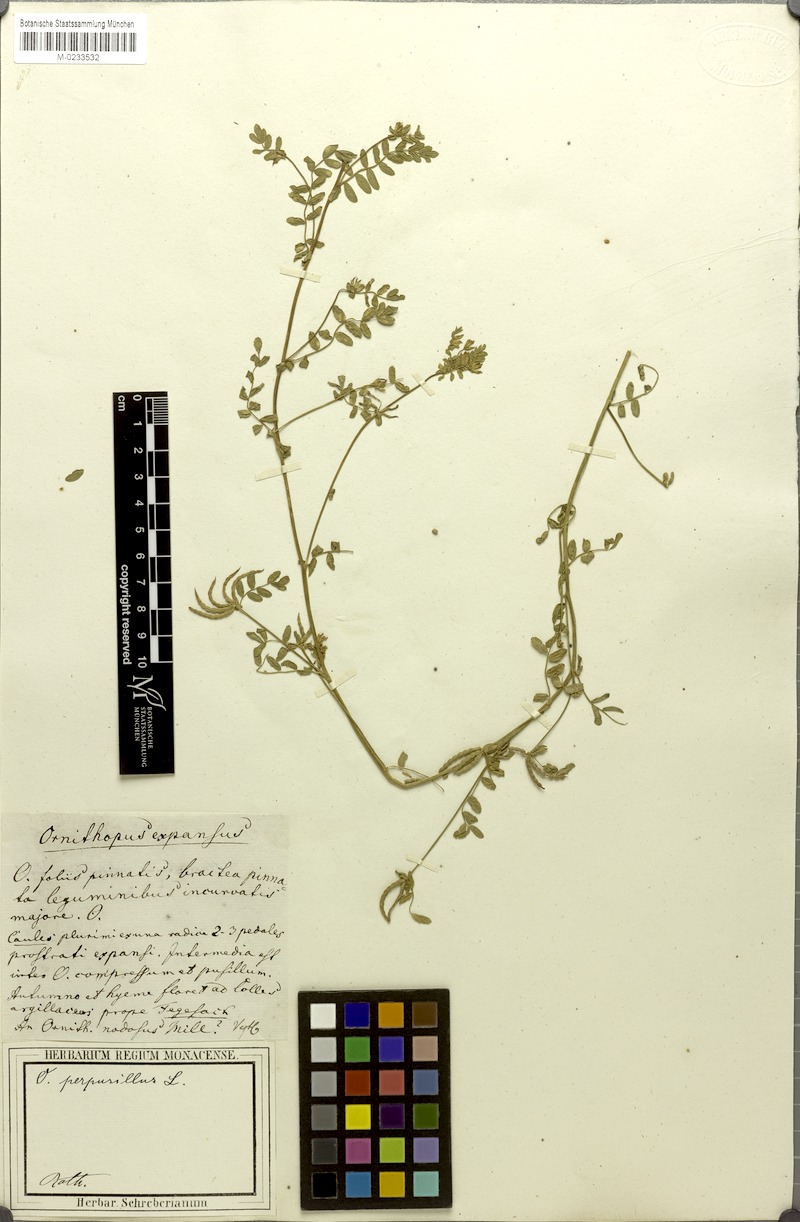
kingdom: Plantae
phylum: Tracheophyta
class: Magnoliopsida
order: Fabales
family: Fabaceae
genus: Ornithopus
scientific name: Ornithopus perpusillus
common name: Bird's-foot
